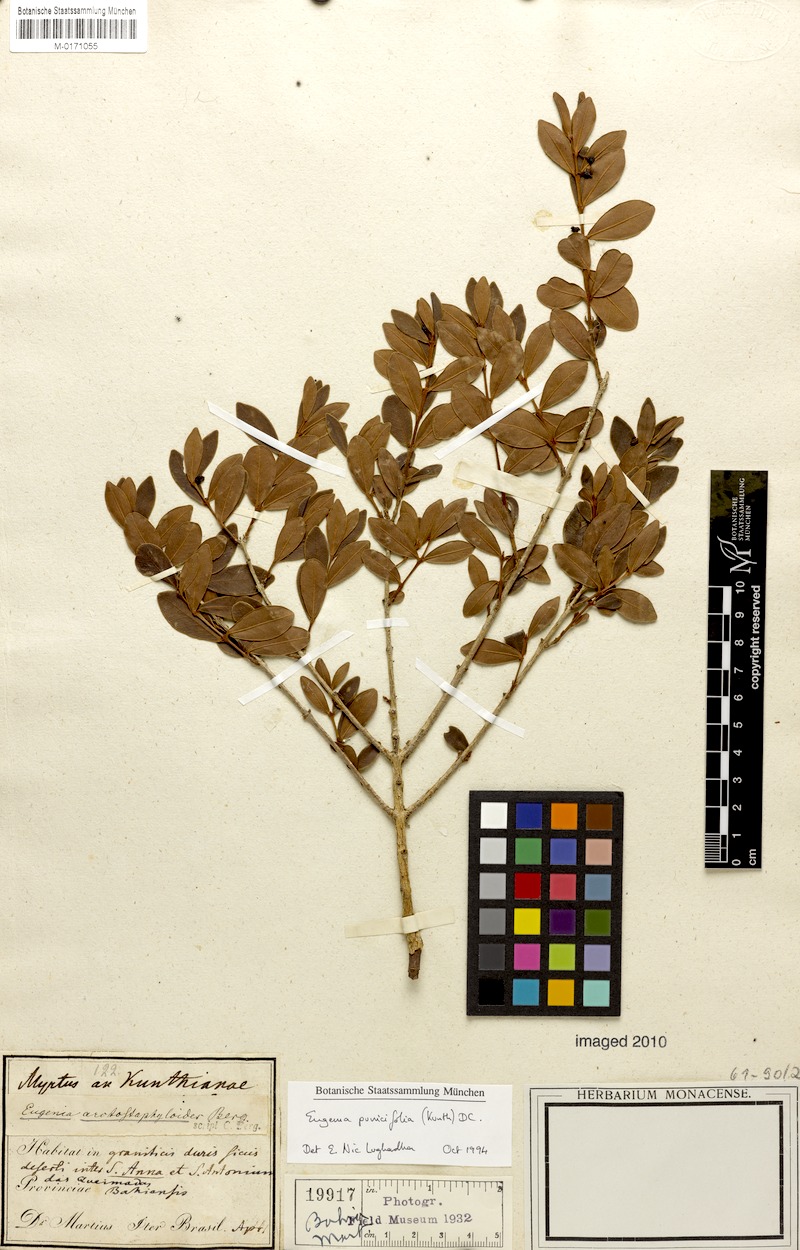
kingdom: Plantae
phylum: Tracheophyta
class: Magnoliopsida
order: Myrtales
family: Myrtaceae
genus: Eugenia
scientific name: Eugenia punicifolia
